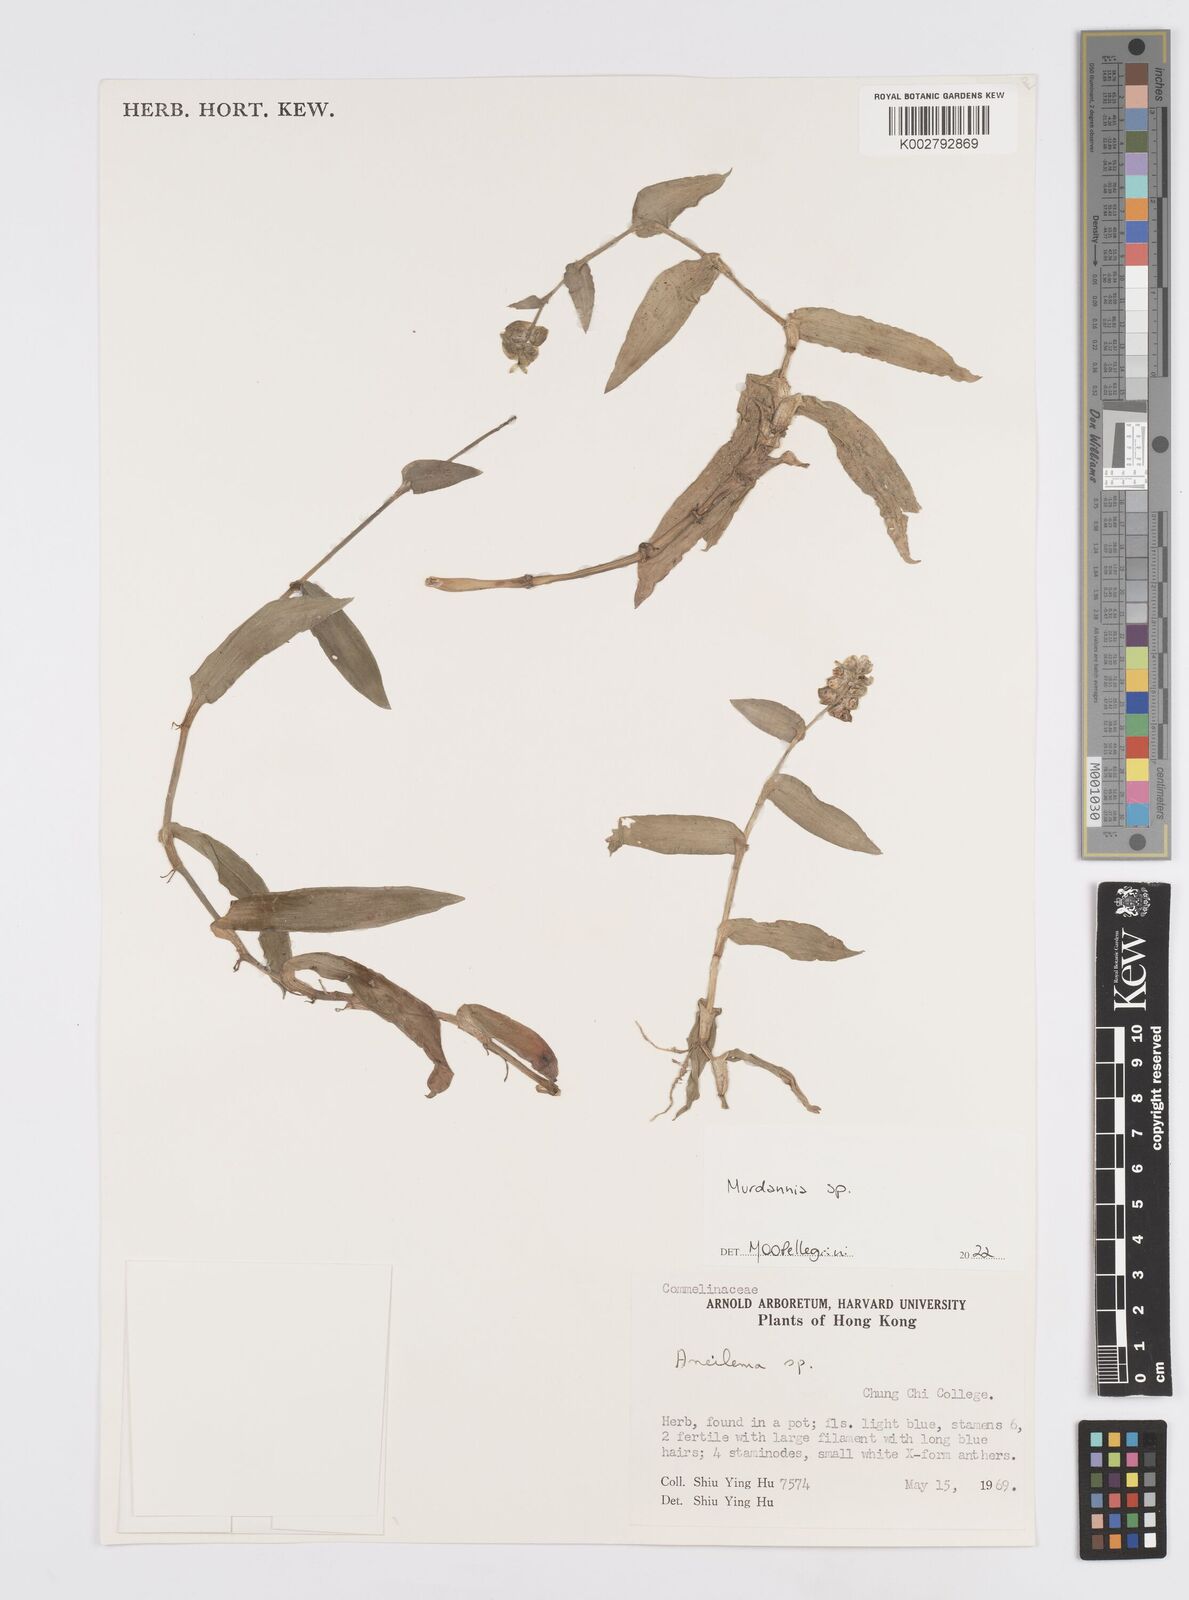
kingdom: Plantae
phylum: Tracheophyta
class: Liliopsida
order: Commelinales
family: Commelinaceae
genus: Murdannia
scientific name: Murdannia
